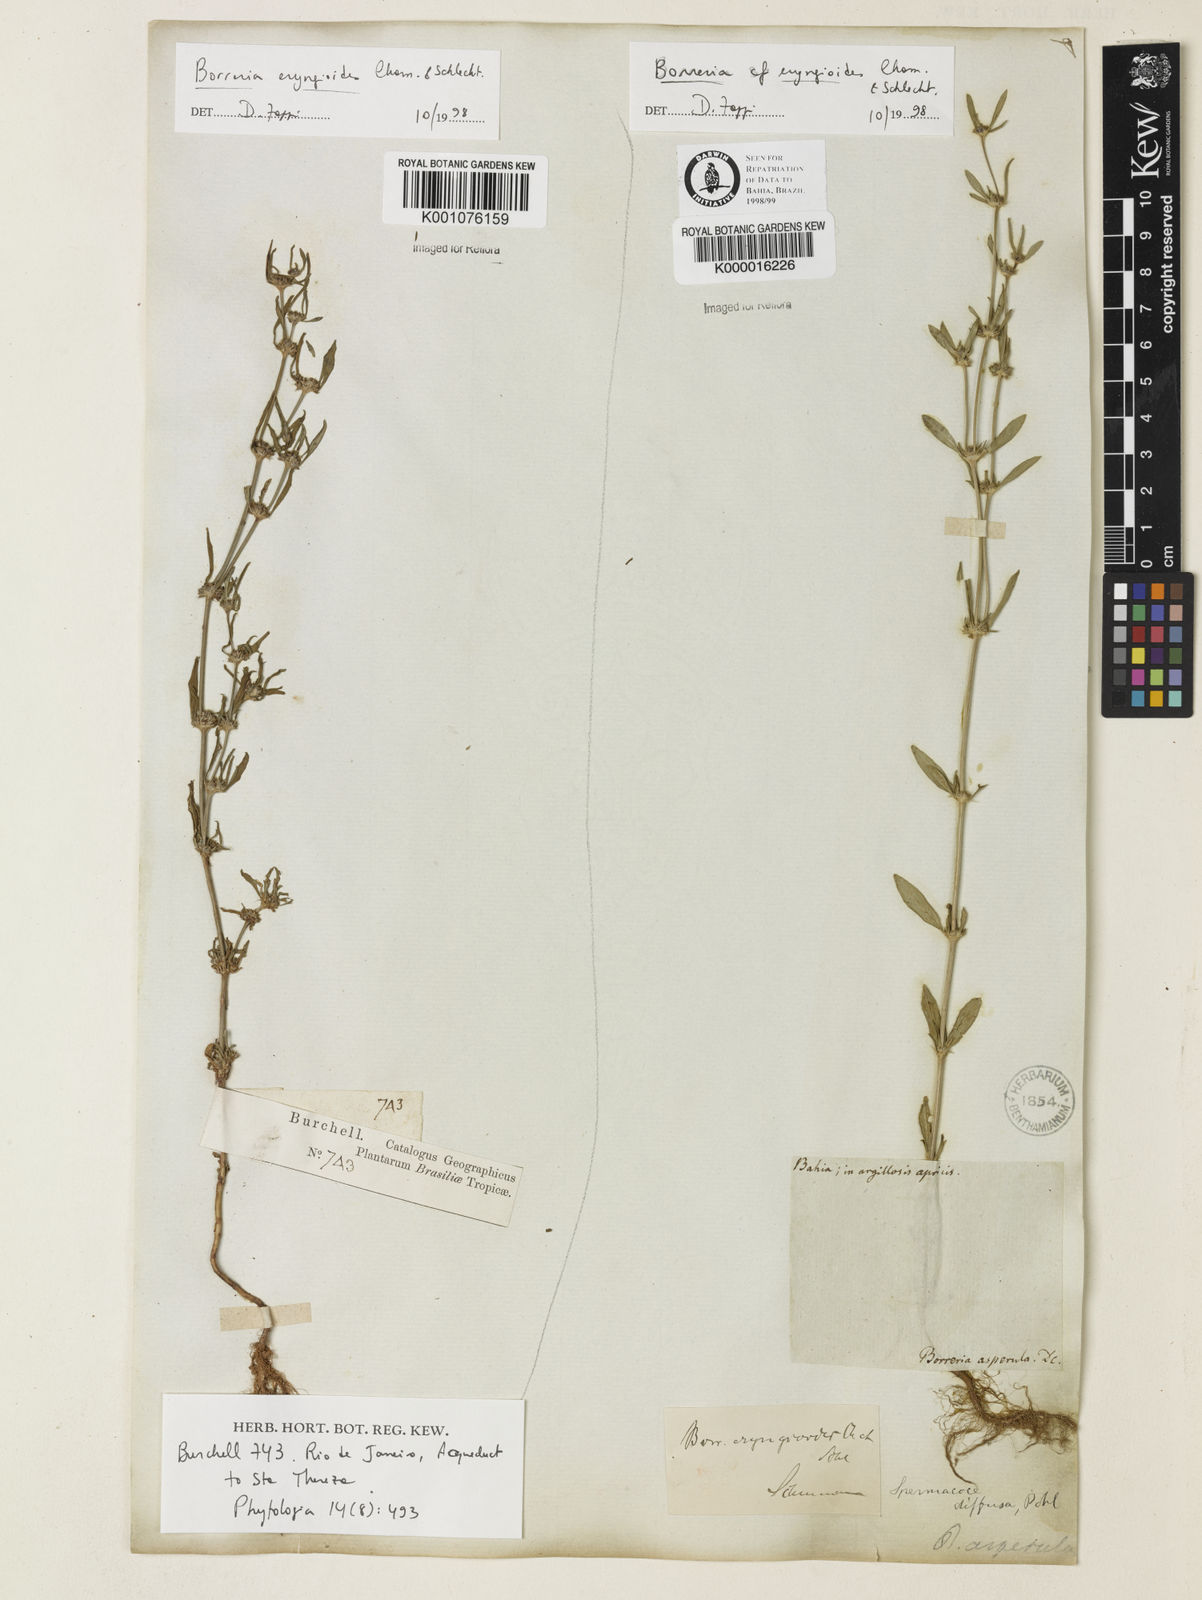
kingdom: Plantae
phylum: Tracheophyta
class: Magnoliopsida
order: Gentianales
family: Rubiaceae
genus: Spermacoce
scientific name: Spermacoce eryngioides
